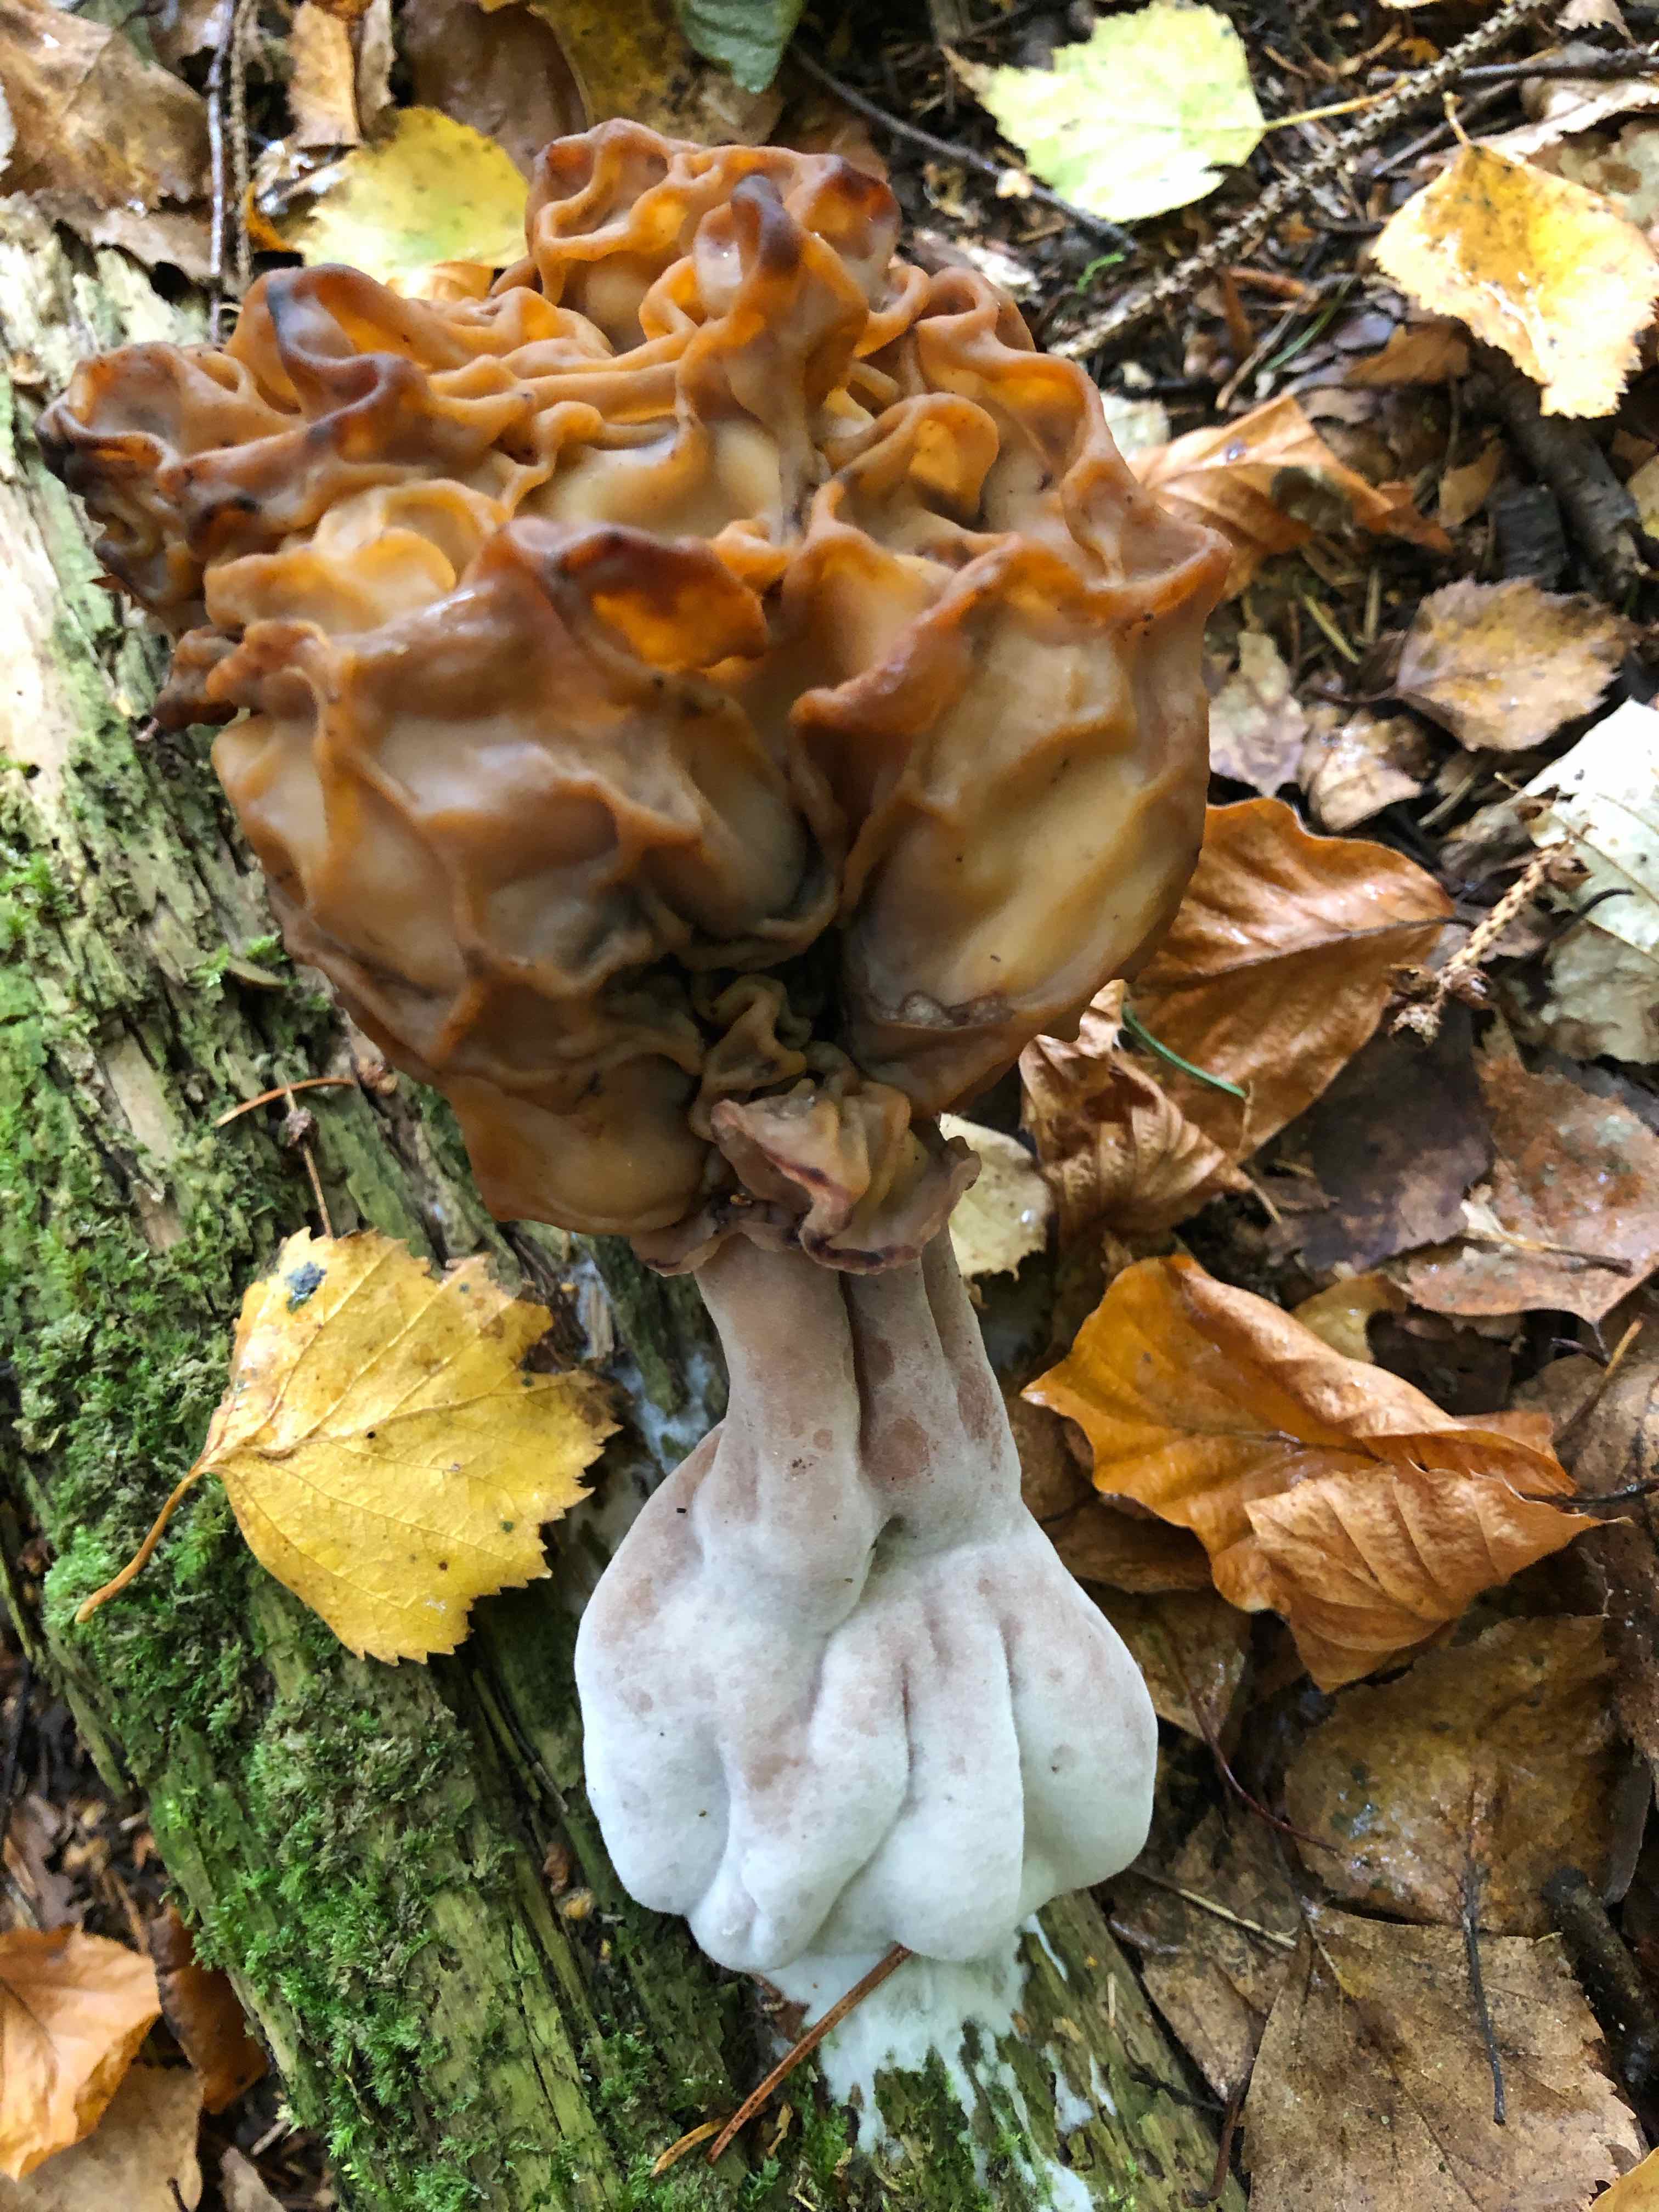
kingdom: Fungi
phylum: Ascomycota
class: Pezizomycetes
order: Pezizales
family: Discinaceae
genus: Gyromitra
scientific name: Gyromitra infula
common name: bispehue-stenmorkel
